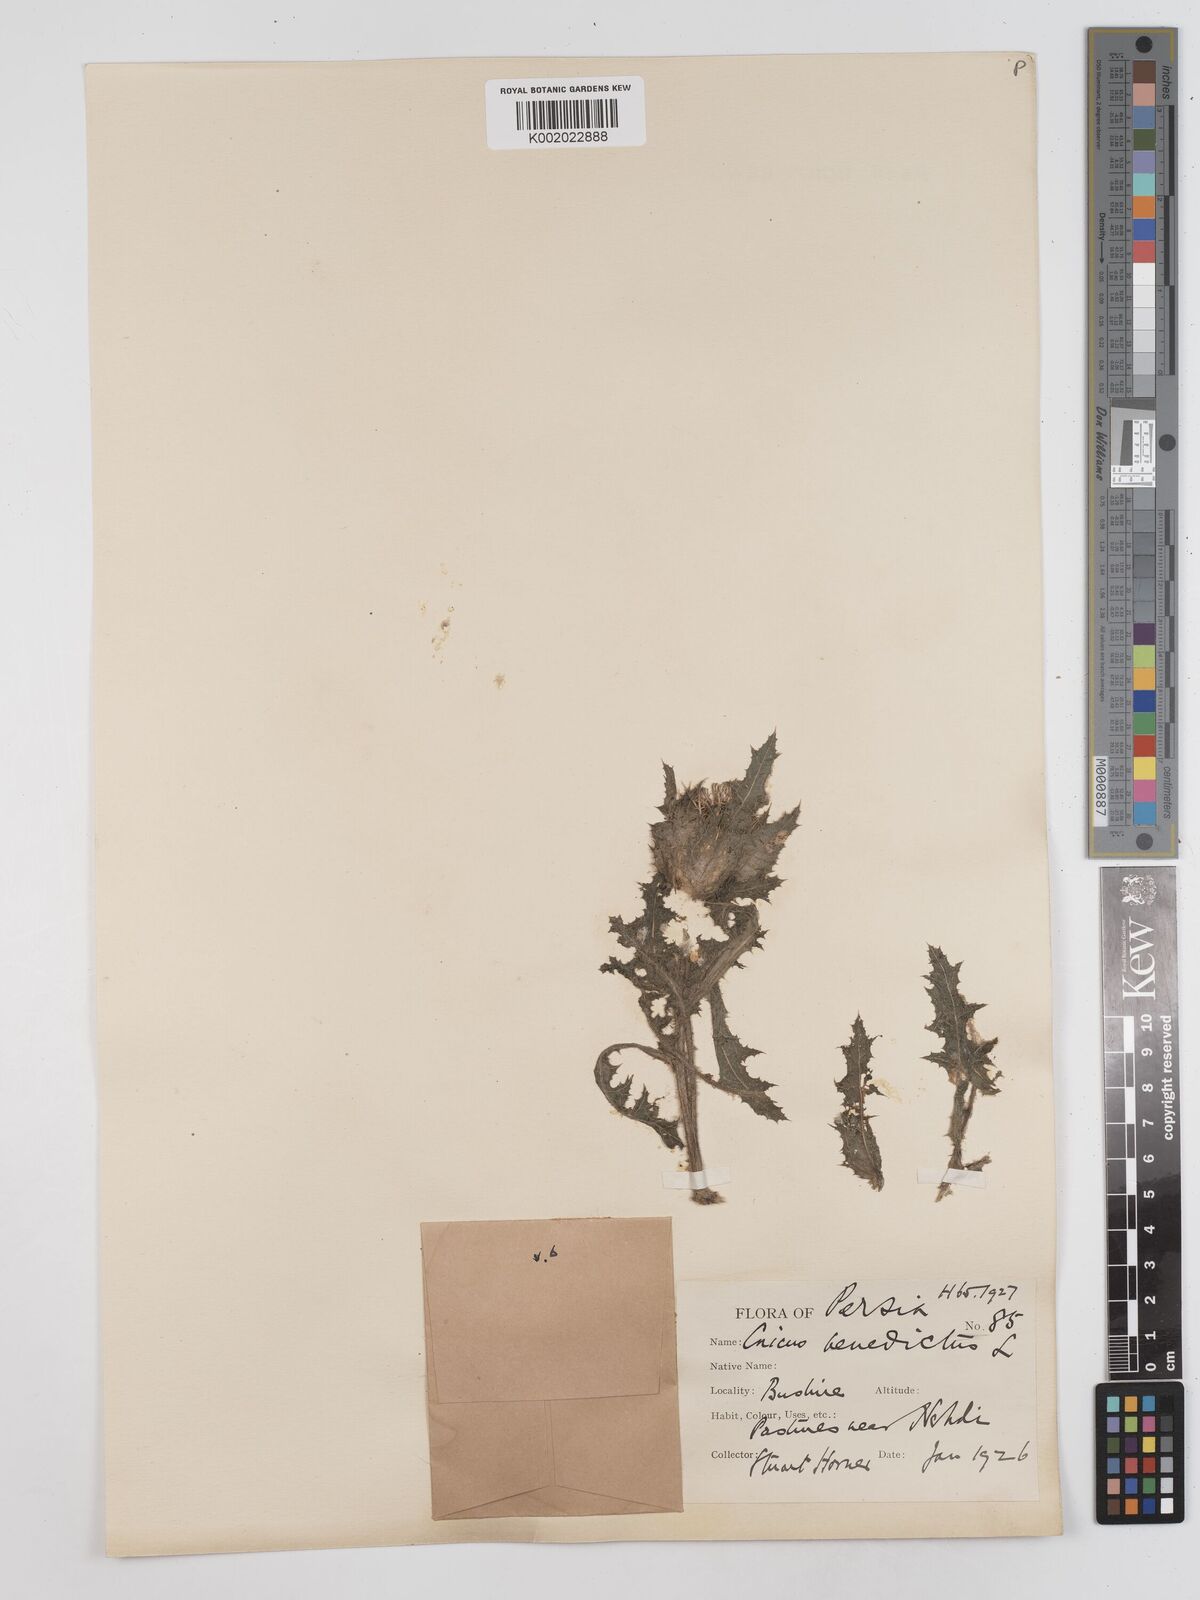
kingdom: Plantae
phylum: Tracheophyta
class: Magnoliopsida
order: Asterales
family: Asteraceae
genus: Centaurea
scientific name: Centaurea benedicta
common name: Blessed thistle
